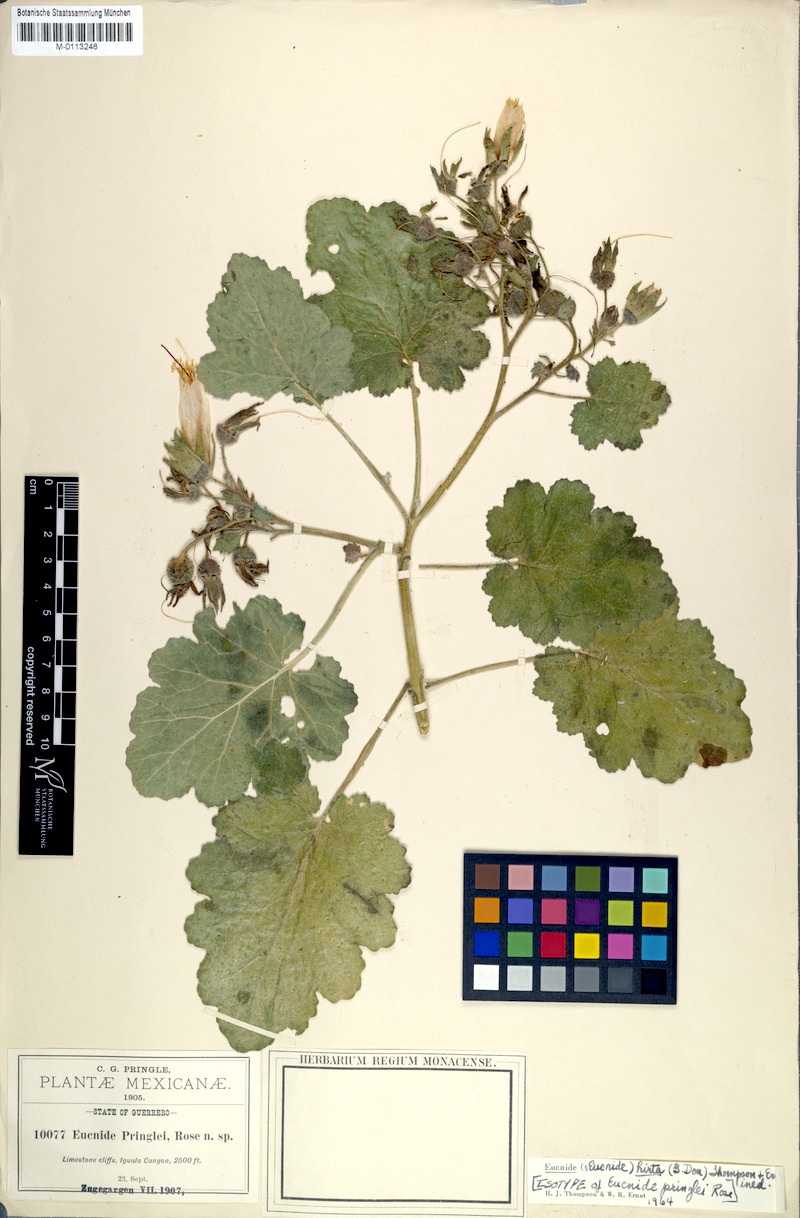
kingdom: Plantae
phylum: Tracheophyta
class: Magnoliopsida
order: Cornales
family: Loasaceae
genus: Eucnide
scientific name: Eucnide hirta
